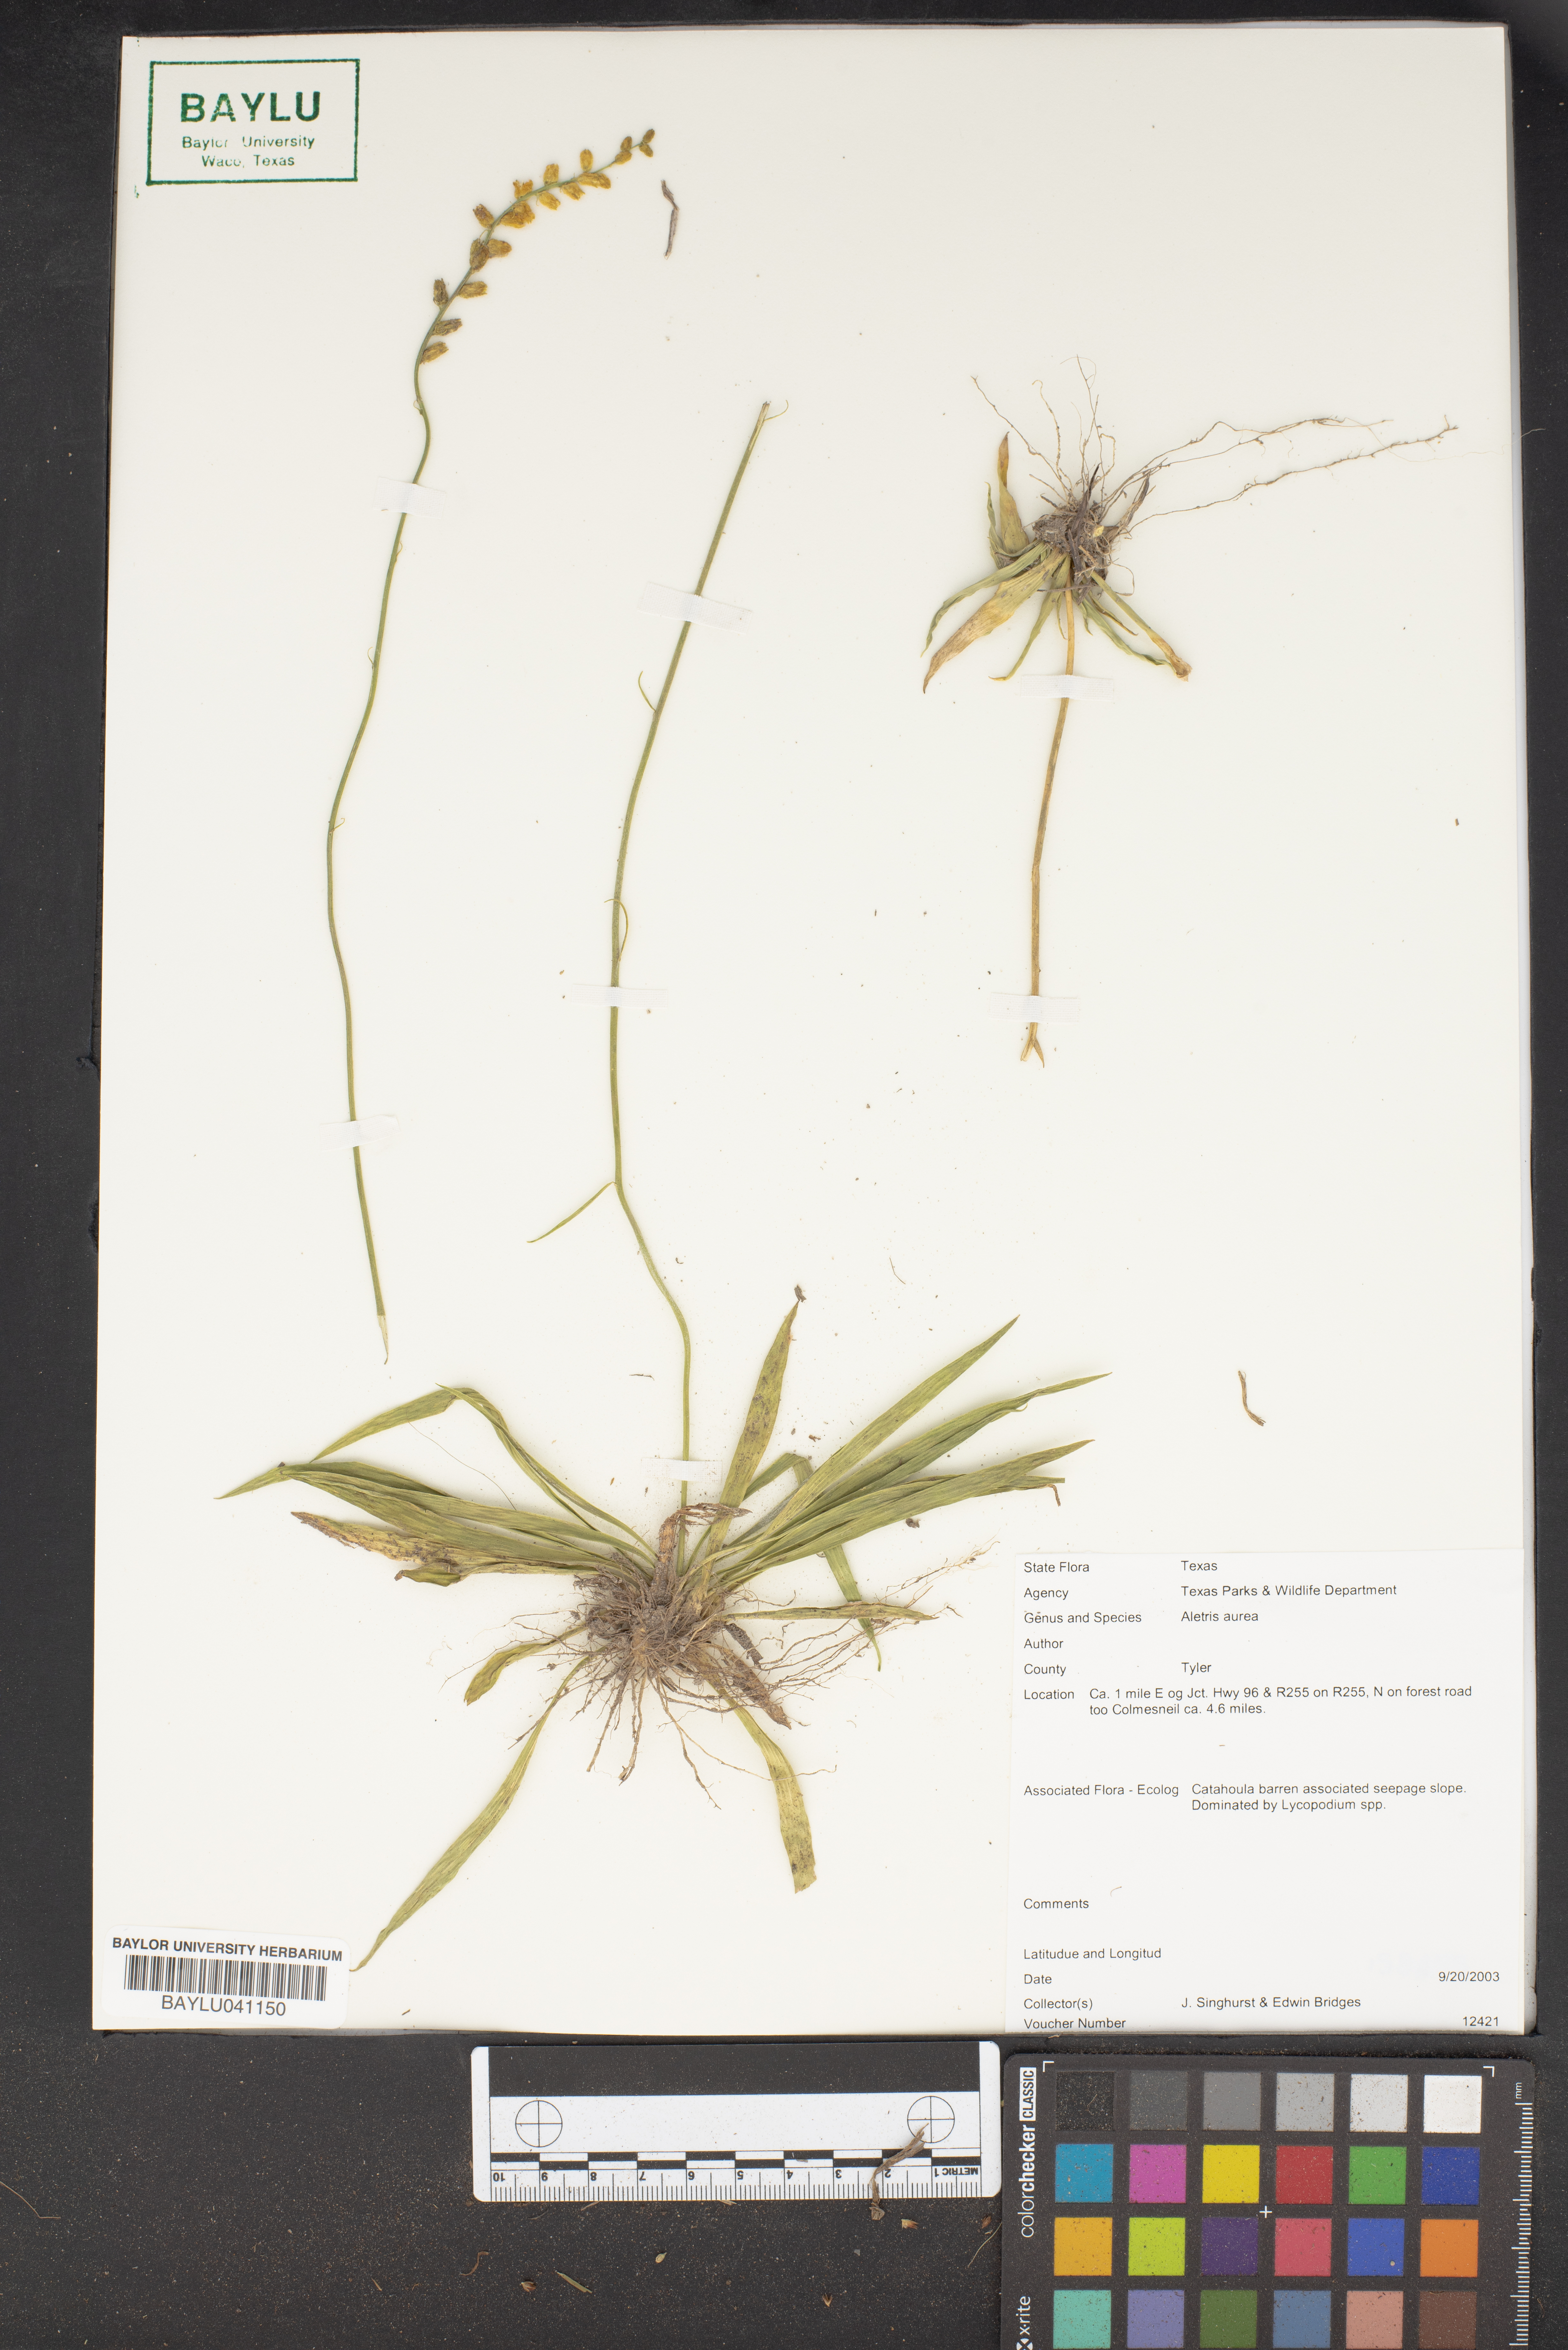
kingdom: Plantae
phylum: Tracheophyta
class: Liliopsida
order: Dioscoreales
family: Nartheciaceae
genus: Aletris
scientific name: Aletris aurea
